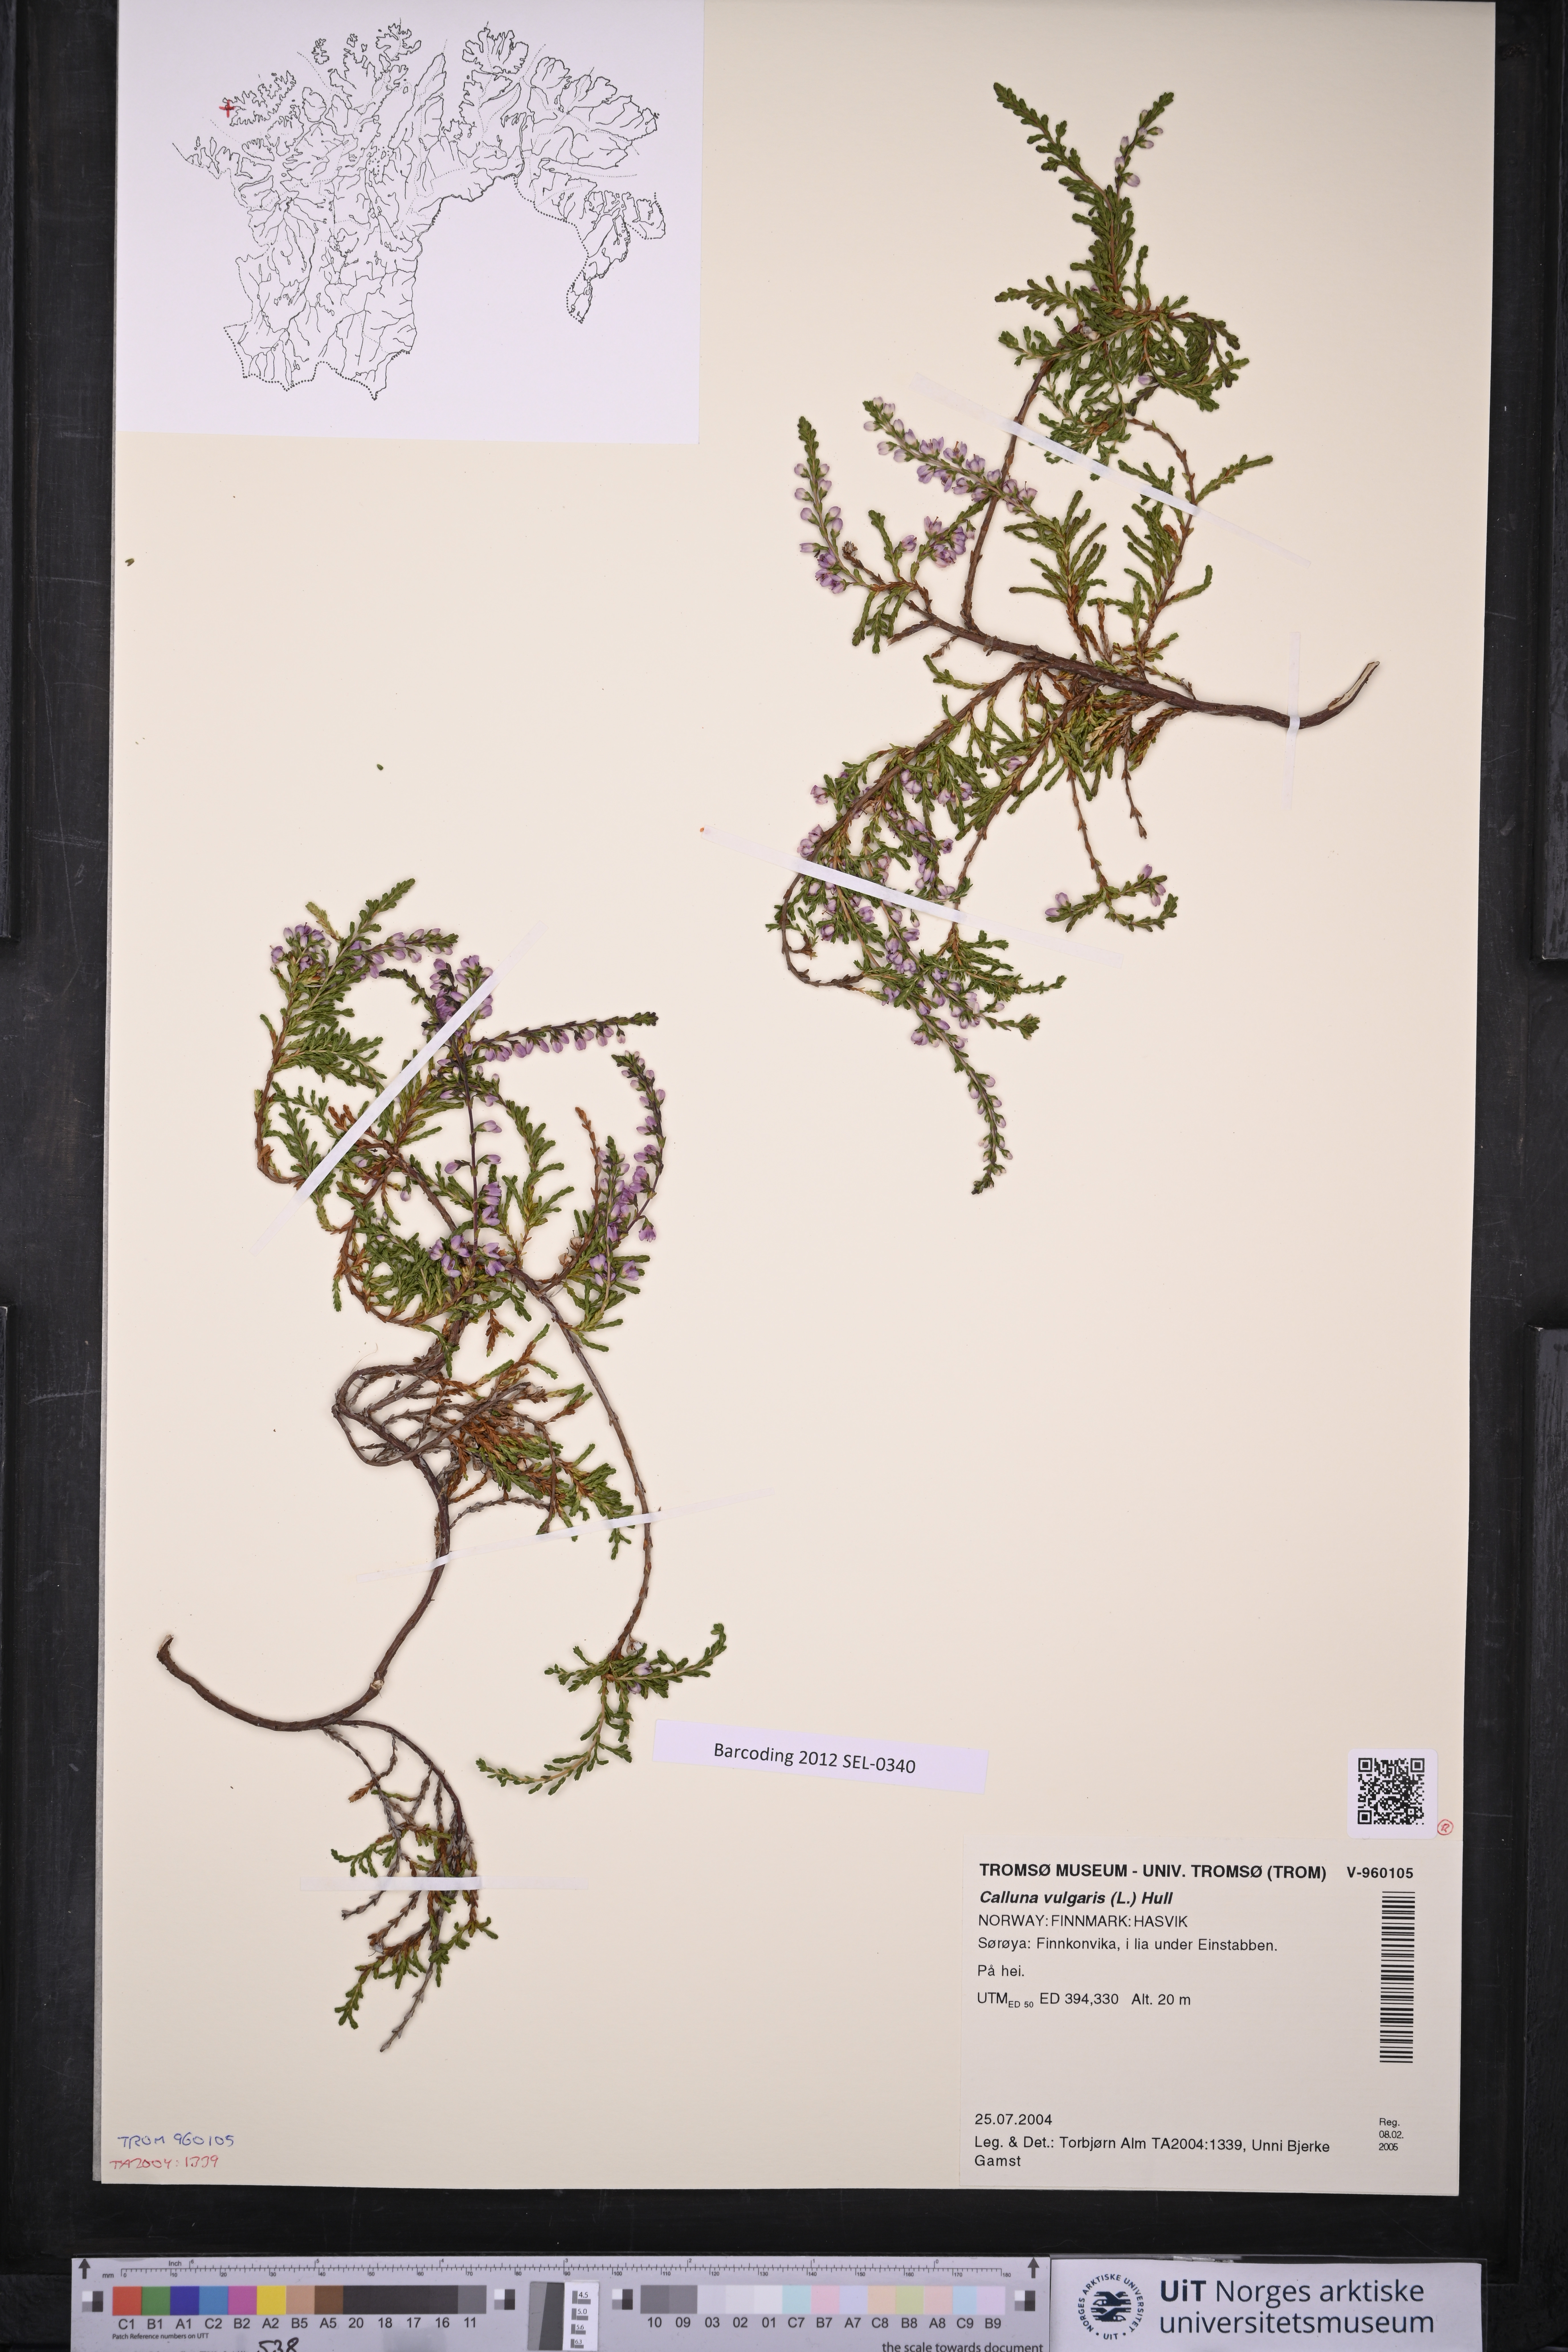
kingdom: Plantae
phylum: Tracheophyta
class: Magnoliopsida
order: Ericales
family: Ericaceae
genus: Calluna
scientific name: Calluna vulgaris
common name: Heather
